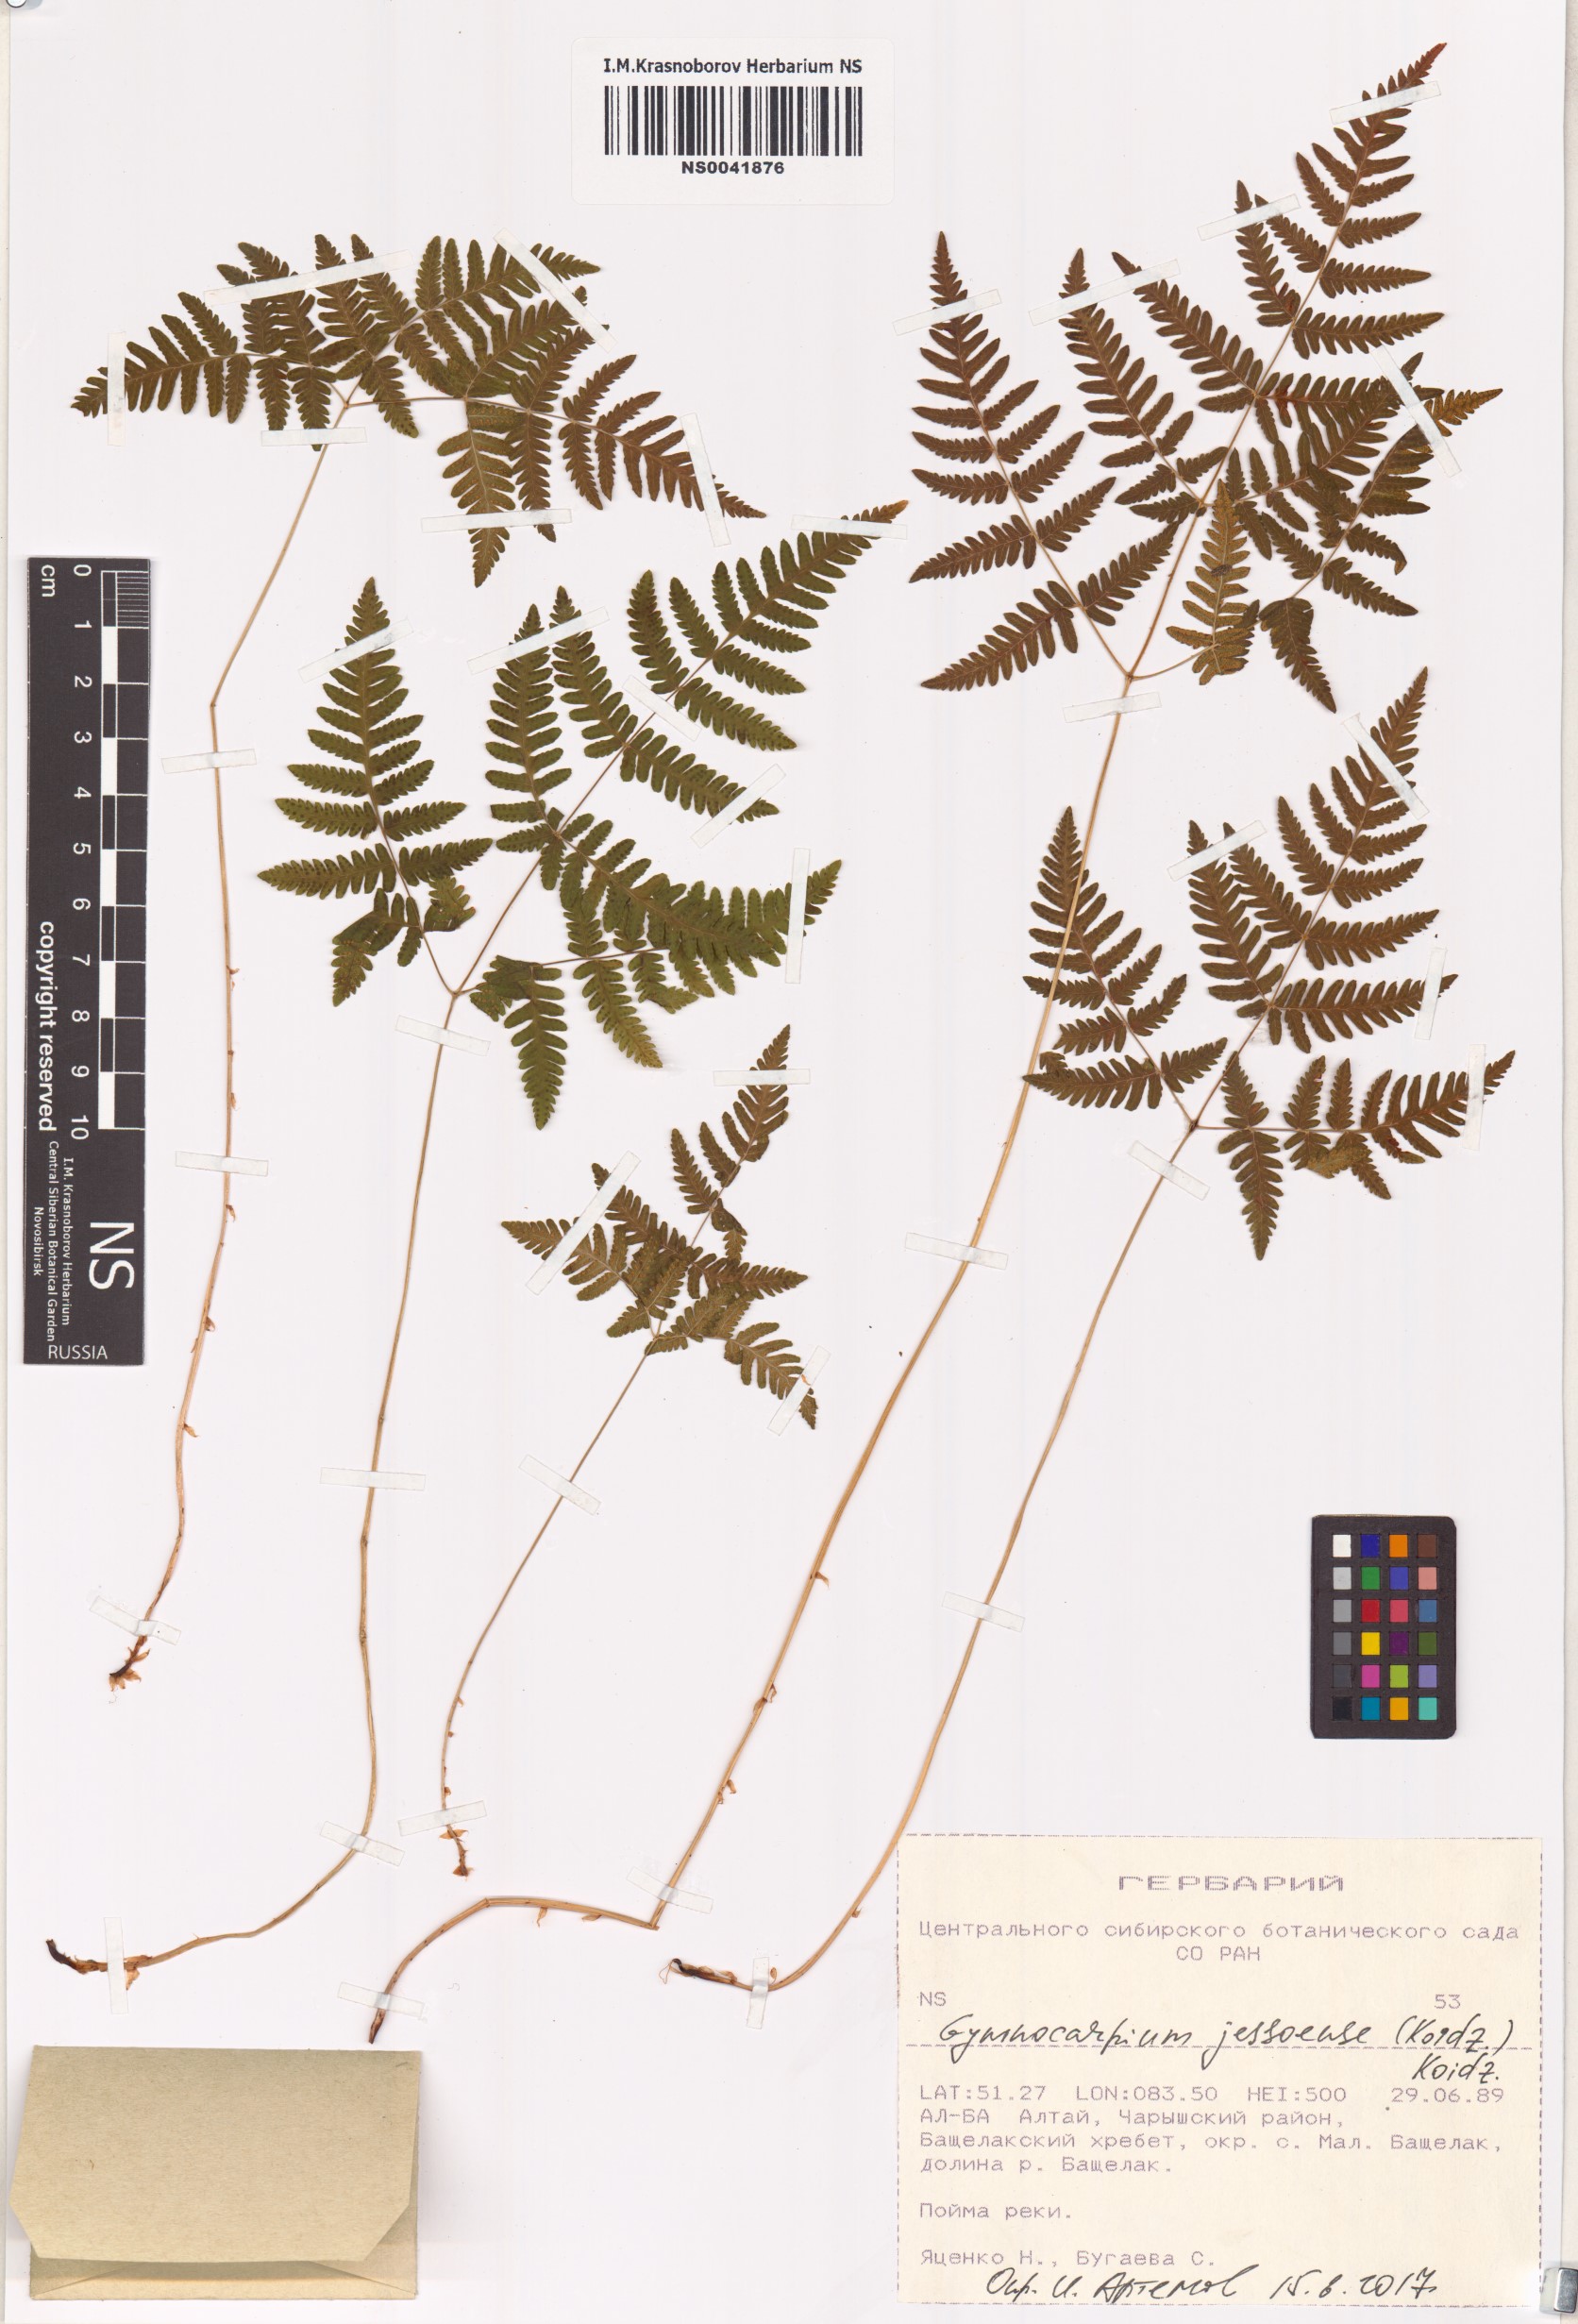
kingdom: Plantae
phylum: Tracheophyta
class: Polypodiopsida
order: Polypodiales
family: Cystopteridaceae
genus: Gymnocarpium
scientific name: Gymnocarpium jessoense
